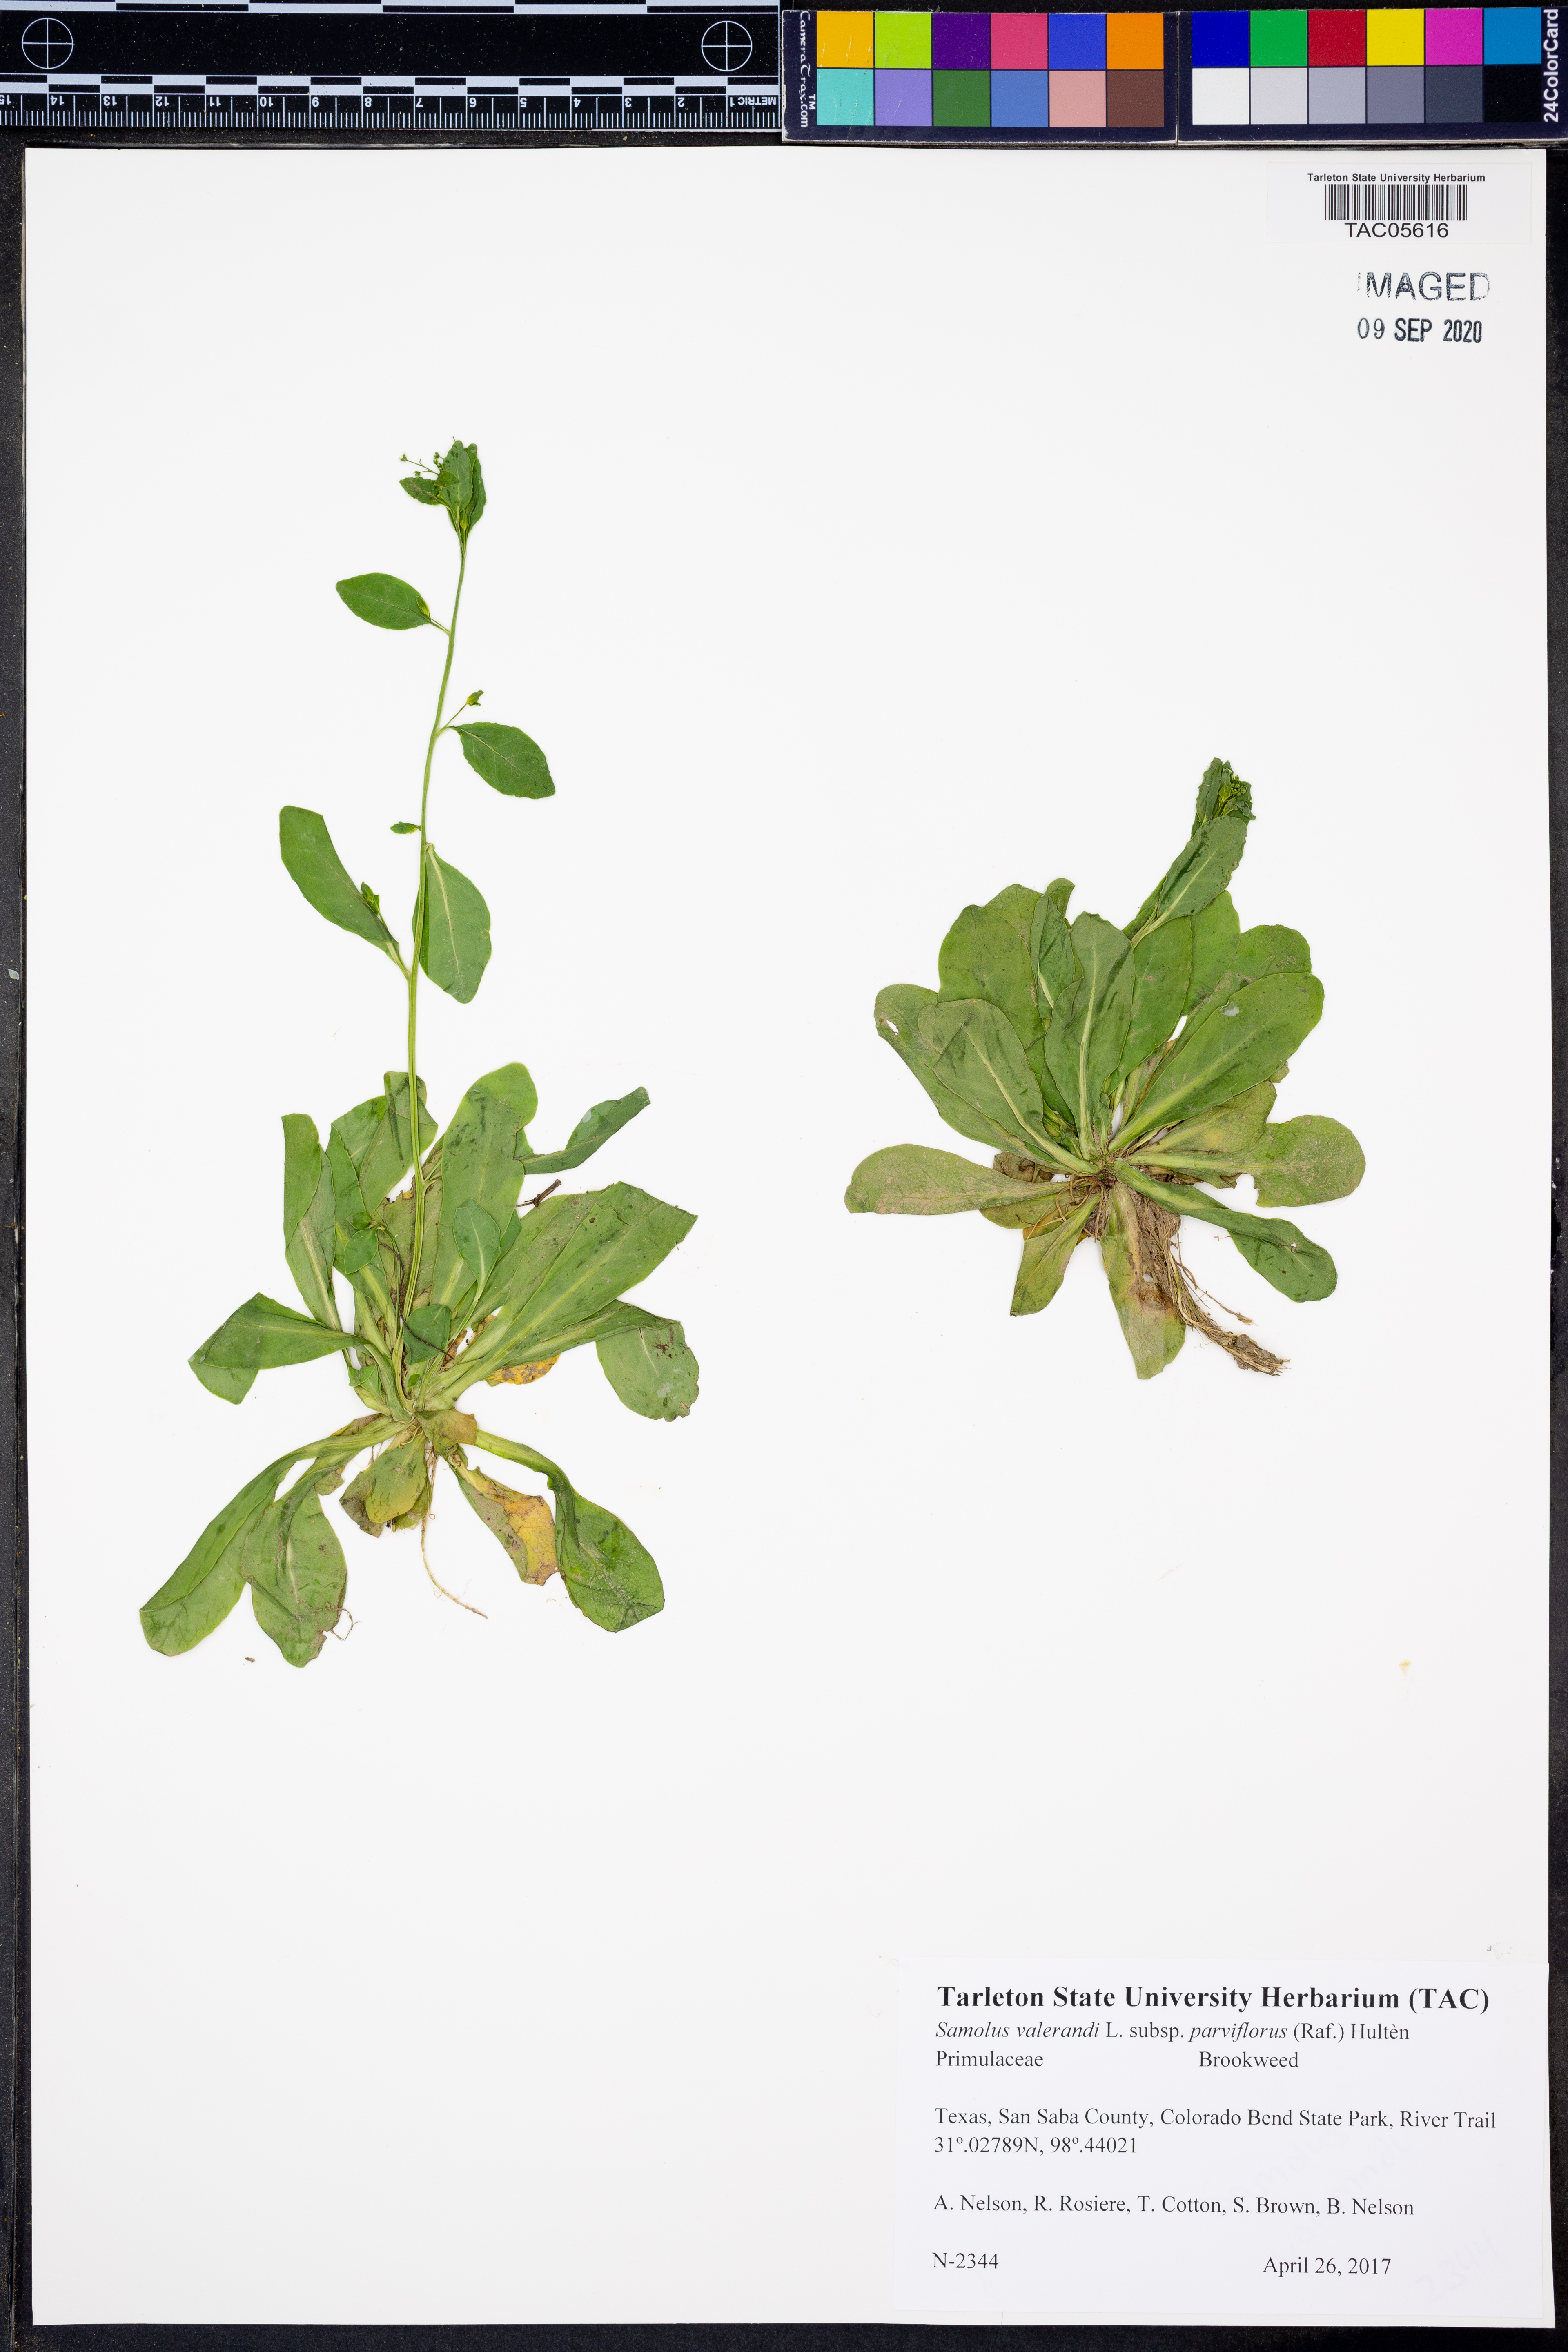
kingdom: Plantae
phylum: Tracheophyta
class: Magnoliopsida
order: Ericales
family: Primulaceae
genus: Samolus
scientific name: Samolus parviflorus
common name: False water pimpernel
